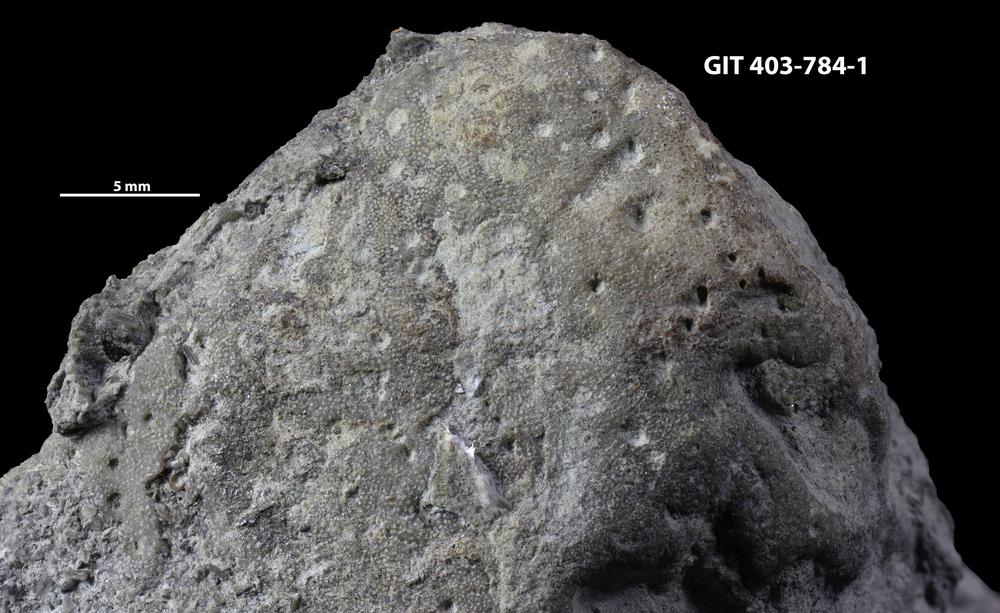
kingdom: Animalia
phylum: Cnidaria
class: Hydrozoa
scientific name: Hydrozoa
